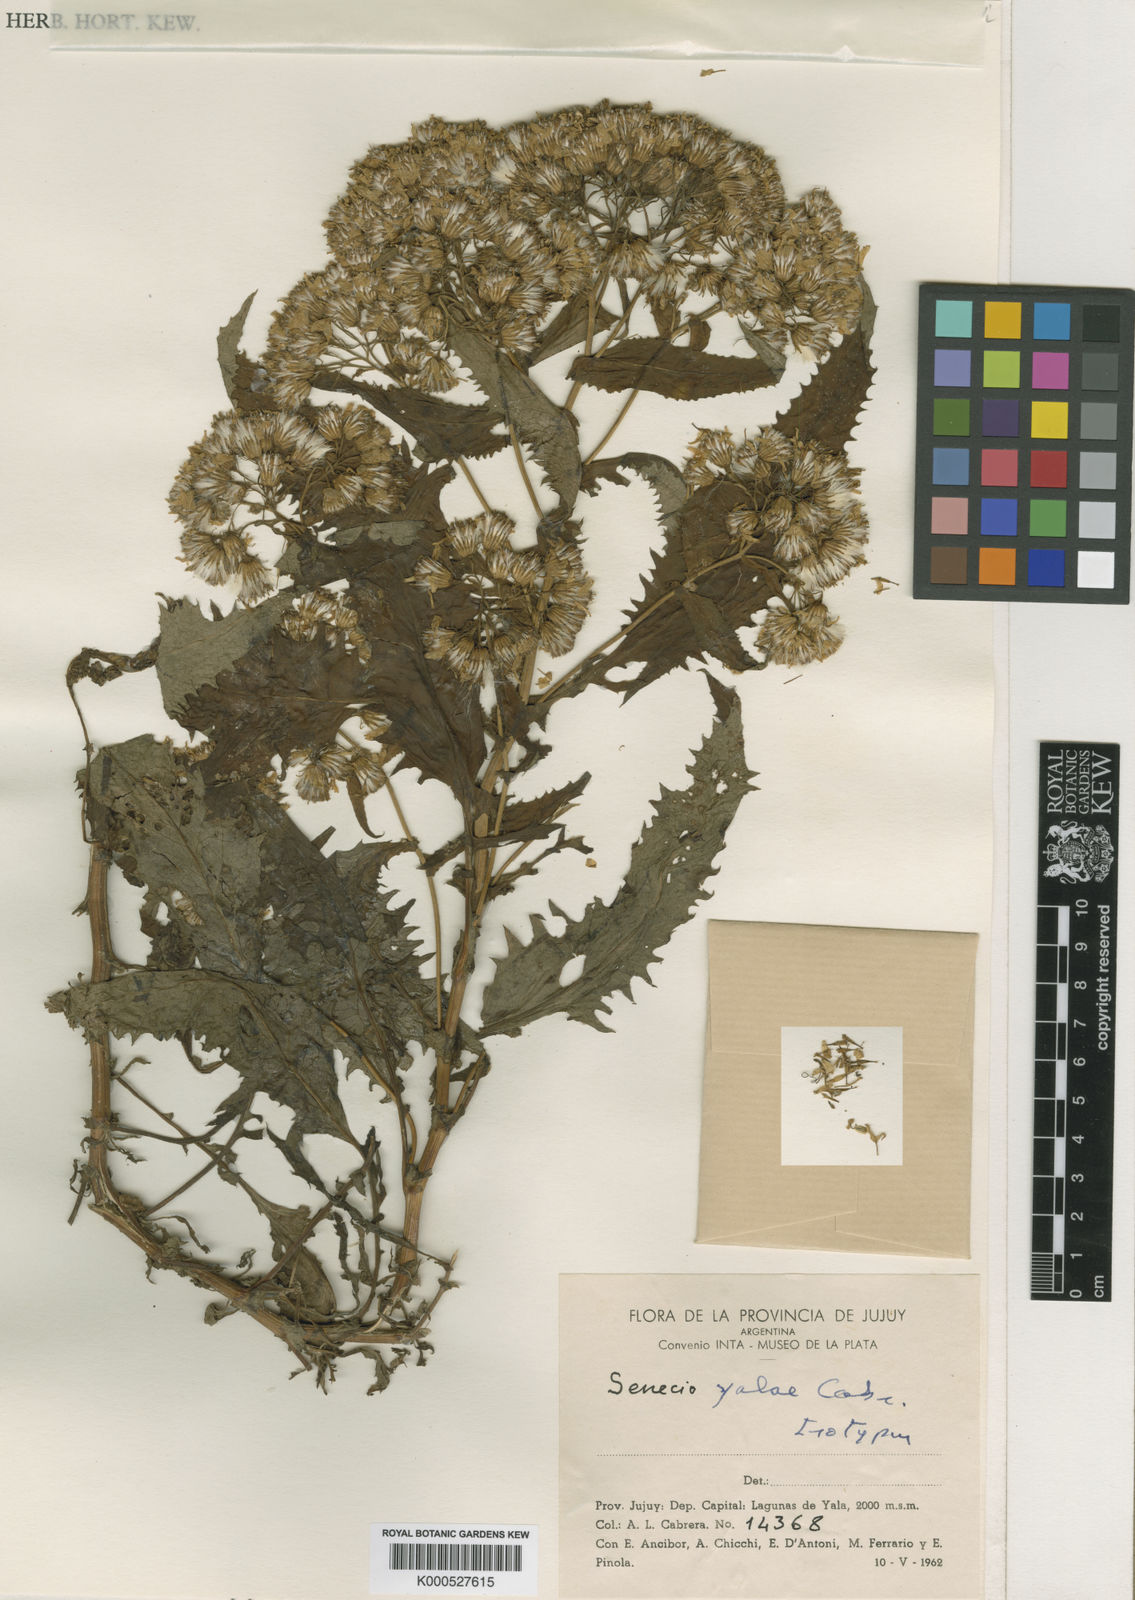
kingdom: Plantae
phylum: Tracheophyta
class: Magnoliopsida
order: Asterales
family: Asteraceae
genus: Senecio
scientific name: Senecio yalae
